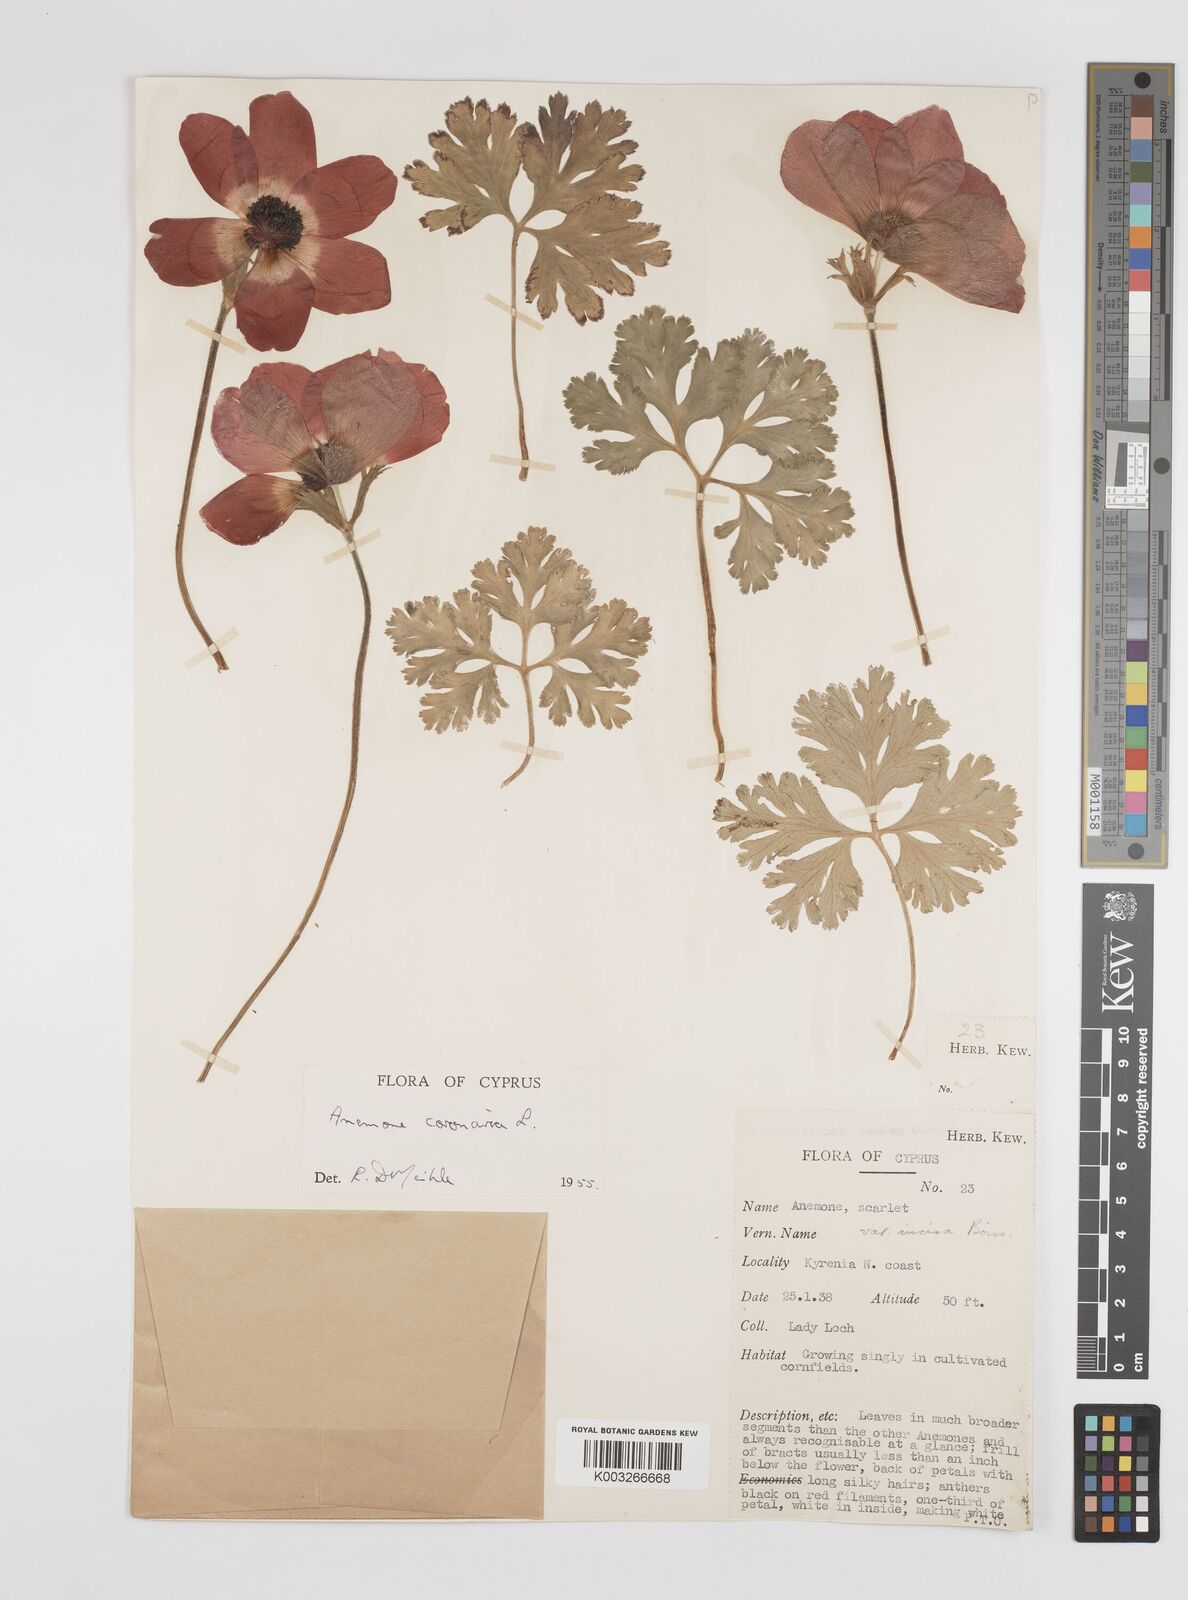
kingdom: Plantae
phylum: Tracheophyta
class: Magnoliopsida
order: Ranunculales
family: Ranunculaceae
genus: Anemone
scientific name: Anemone coronaria
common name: Poppy anemone
